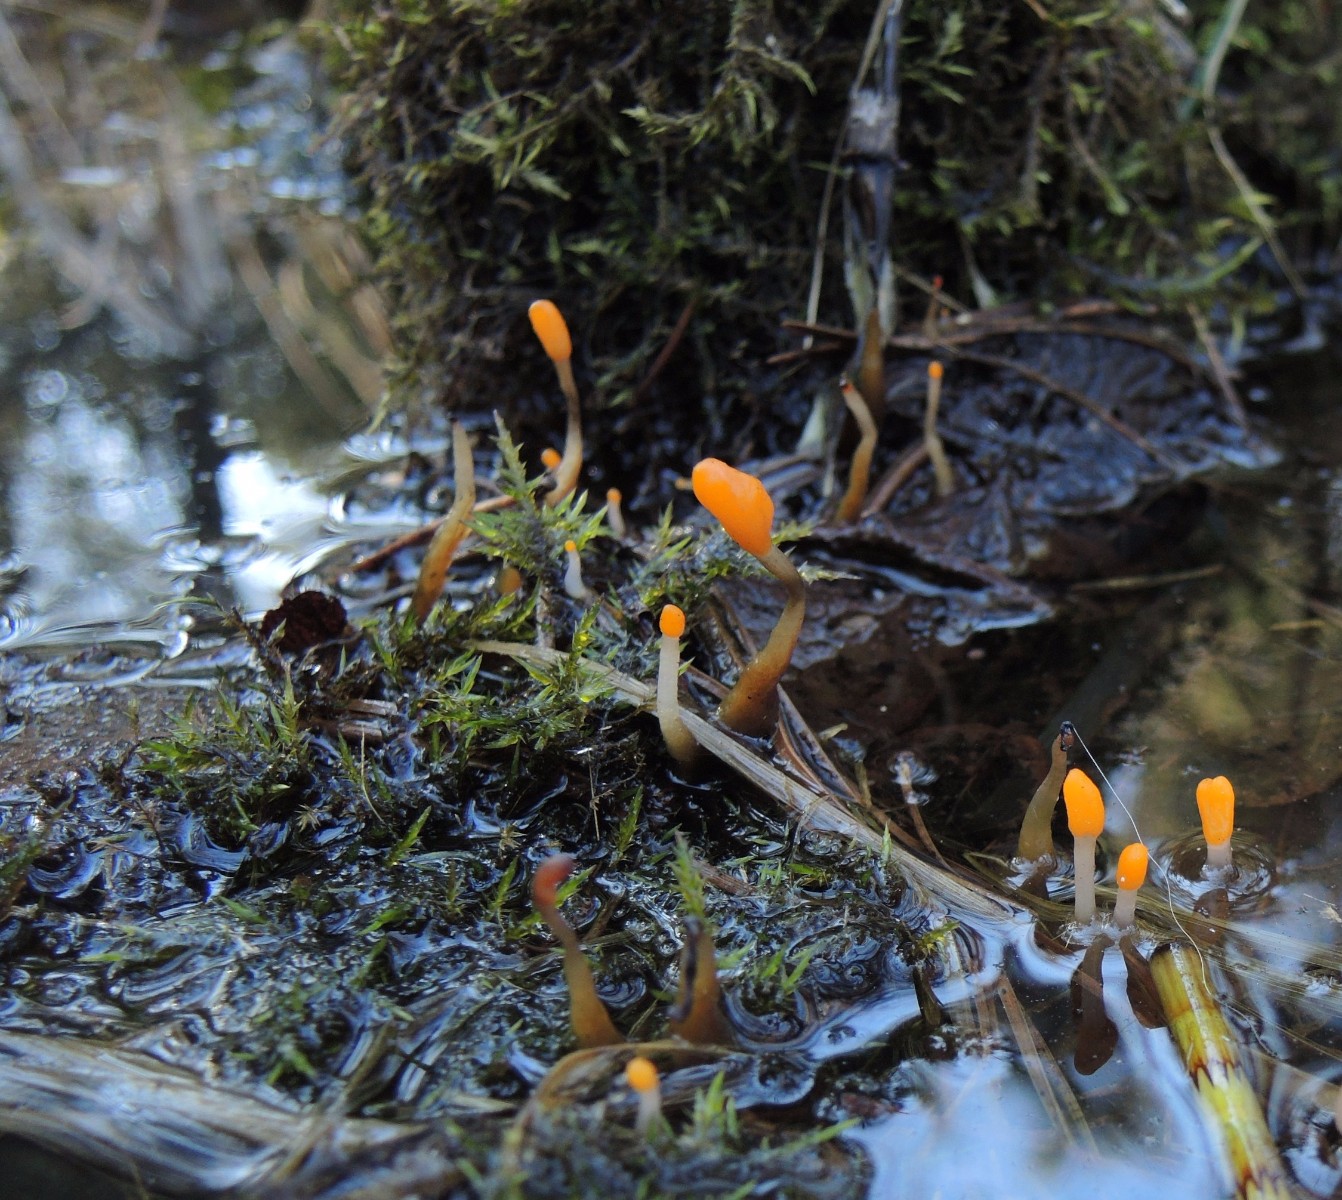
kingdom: Fungi
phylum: Ascomycota
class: Leotiomycetes
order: Helotiales
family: Cenangiaceae
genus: Mitrula
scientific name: Mitrula paludosa
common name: gul nøkketunge
